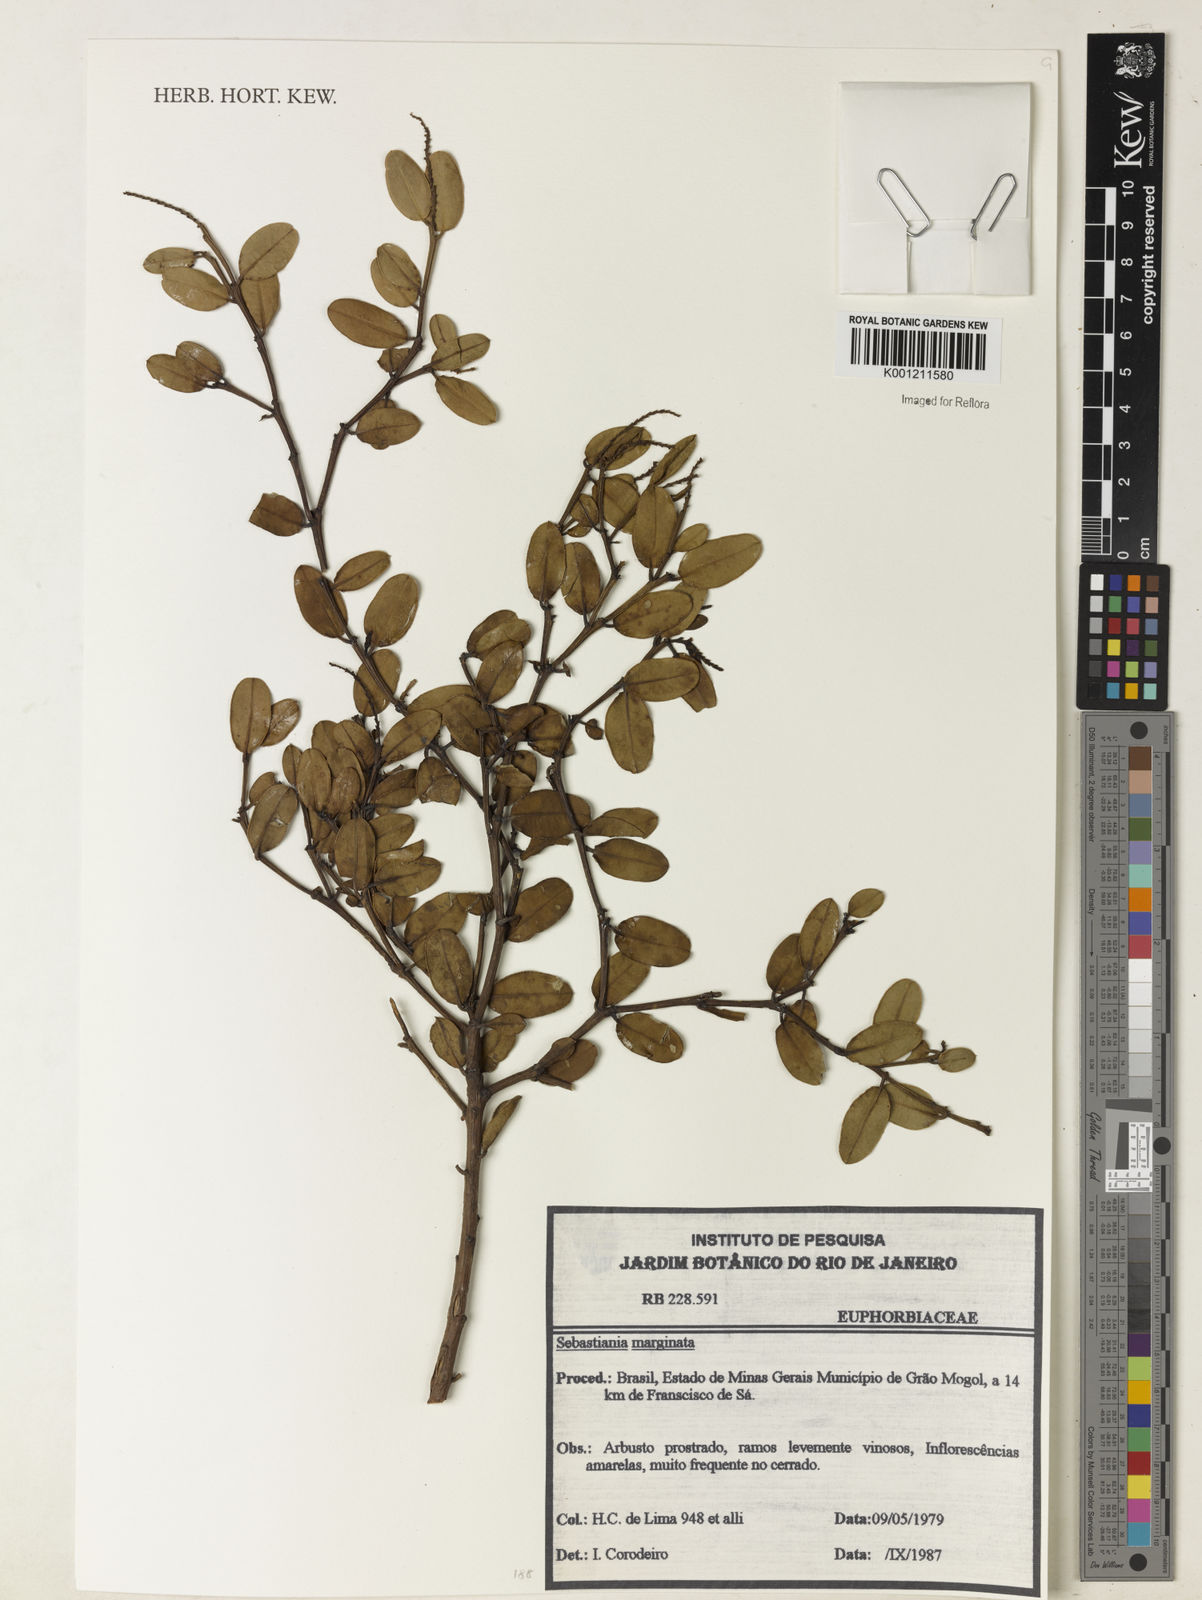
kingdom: Plantae
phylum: Tracheophyta
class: Magnoliopsida
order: Malpighiales
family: Euphorbiaceae
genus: Microstachys
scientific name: Microstachys
